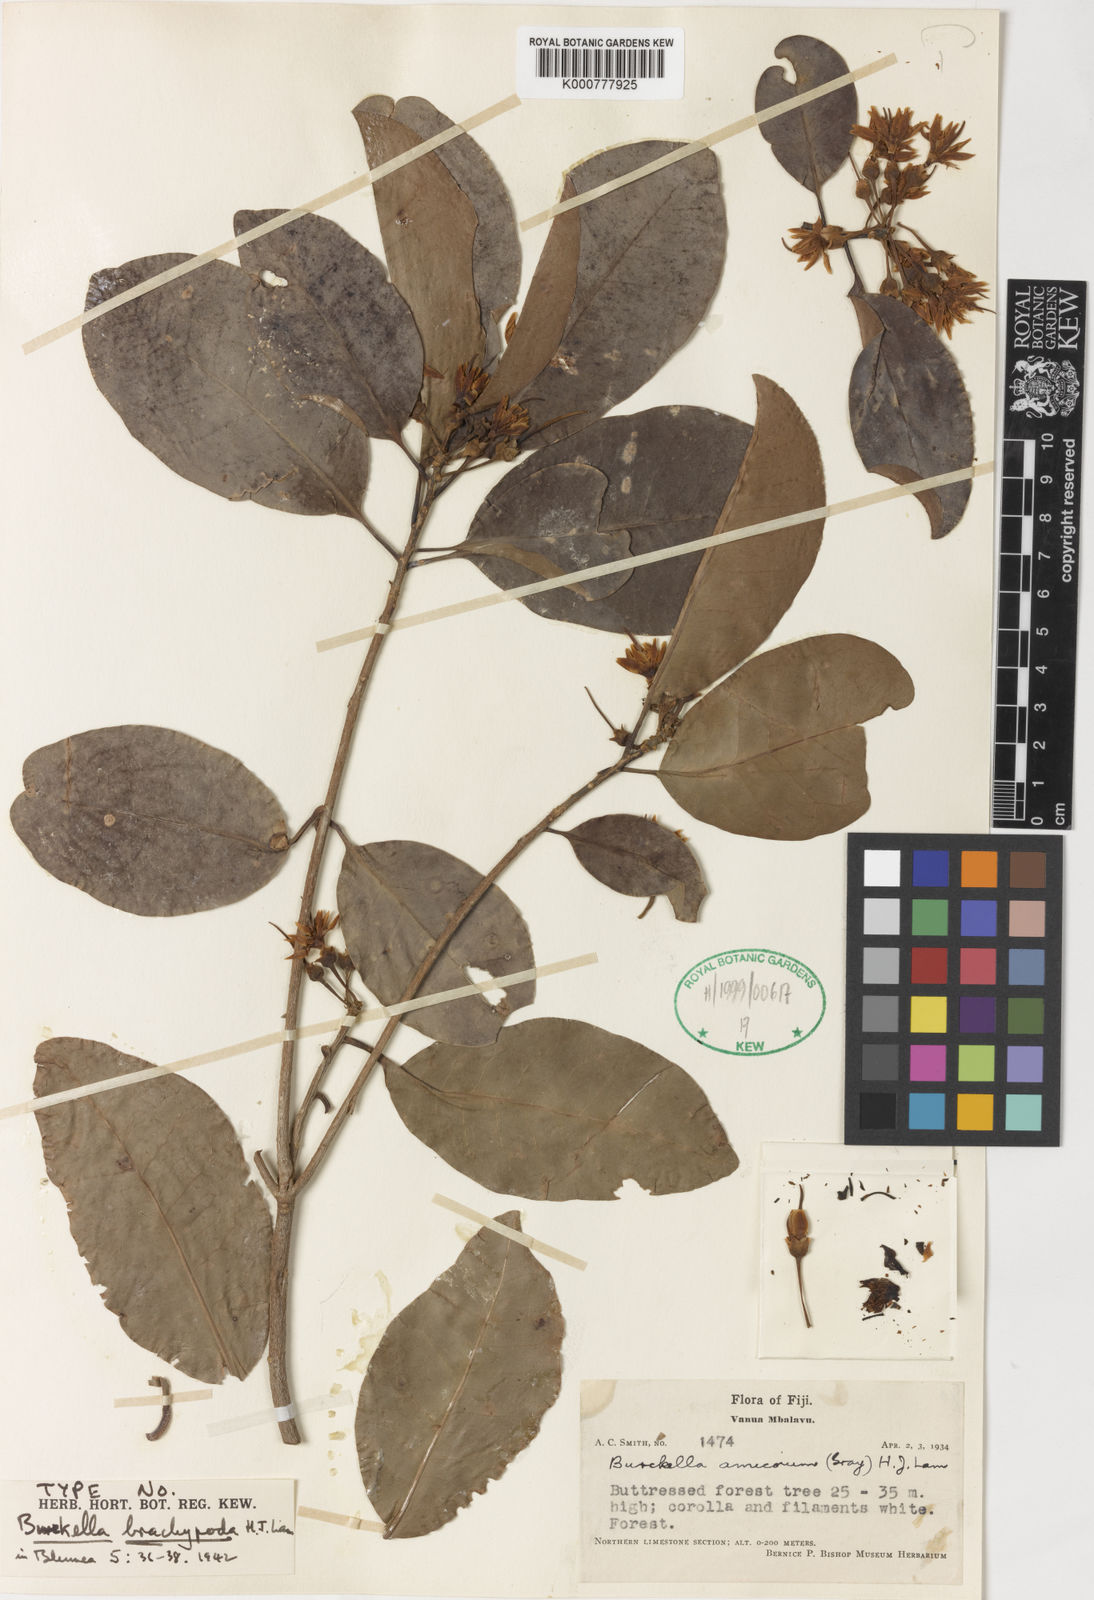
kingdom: Plantae
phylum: Tracheophyta
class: Magnoliopsida
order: Ericales
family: Sapotaceae
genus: Burckella
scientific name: Burckella richii
